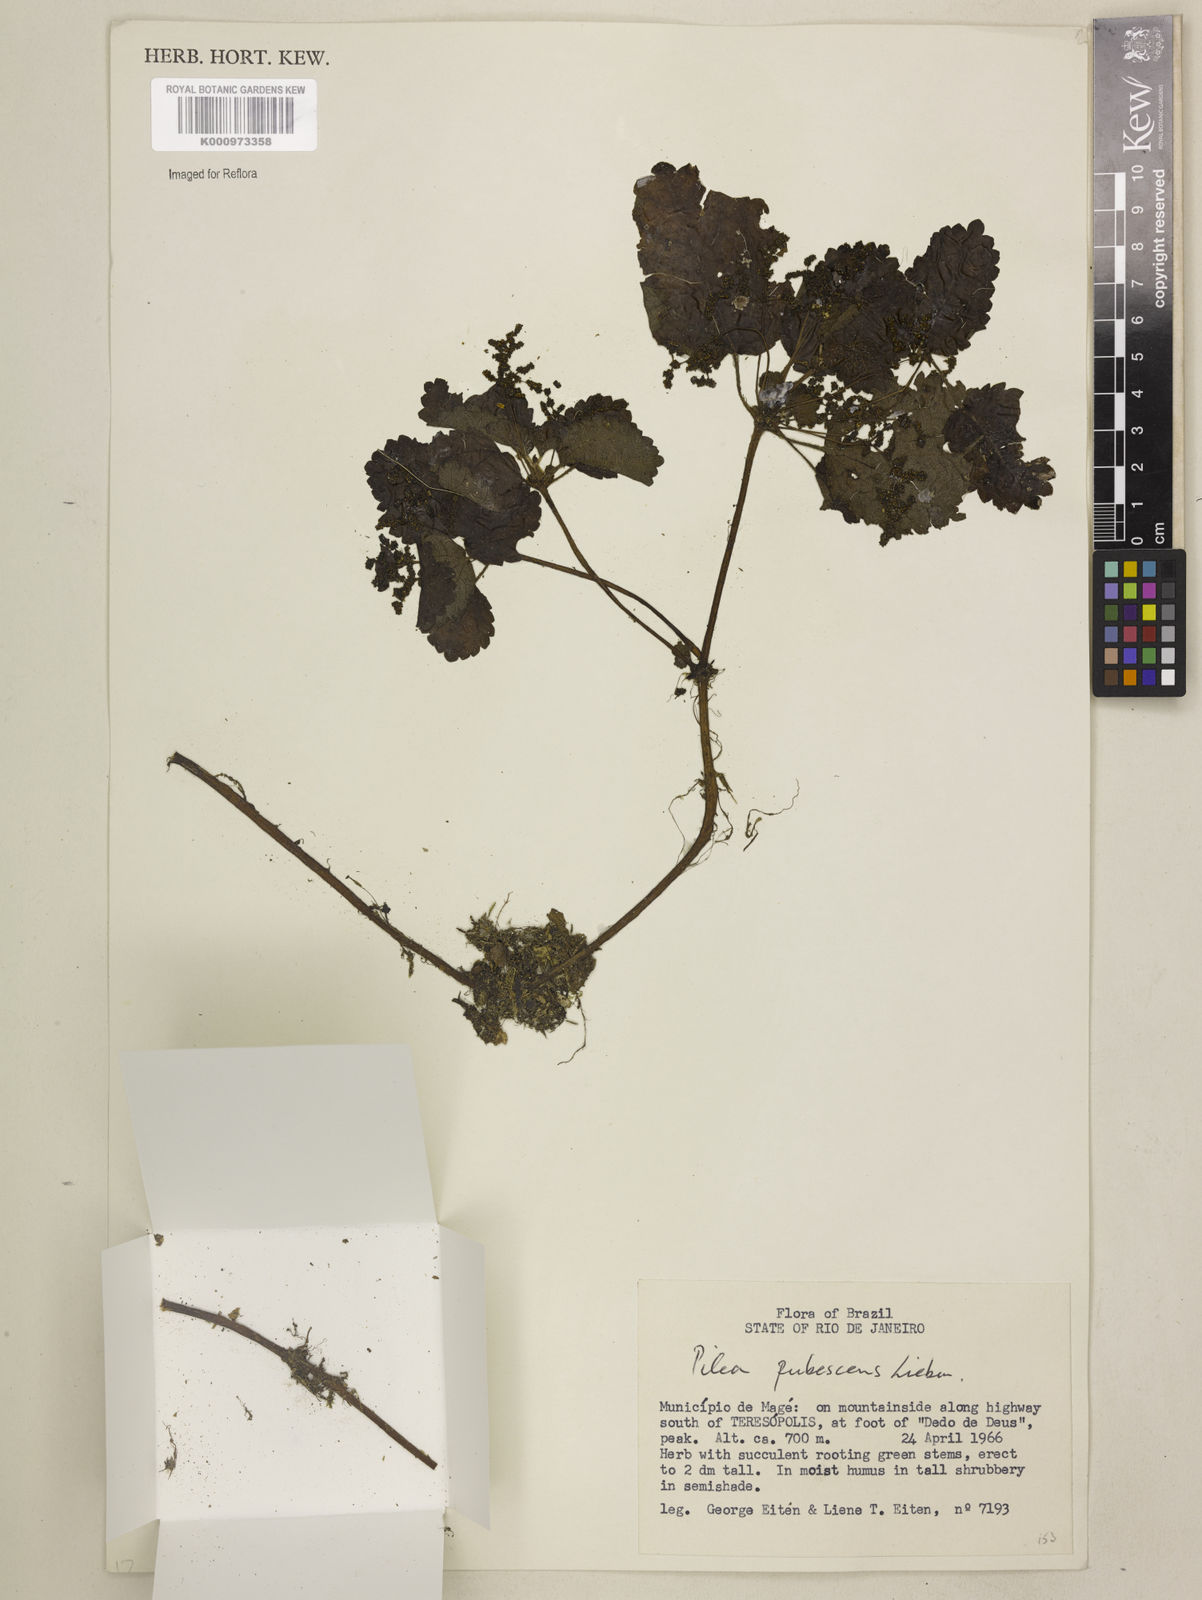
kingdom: Plantae
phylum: Tracheophyta
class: Magnoliopsida
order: Rosales
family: Urticaceae
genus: Pilea
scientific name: Pilea
